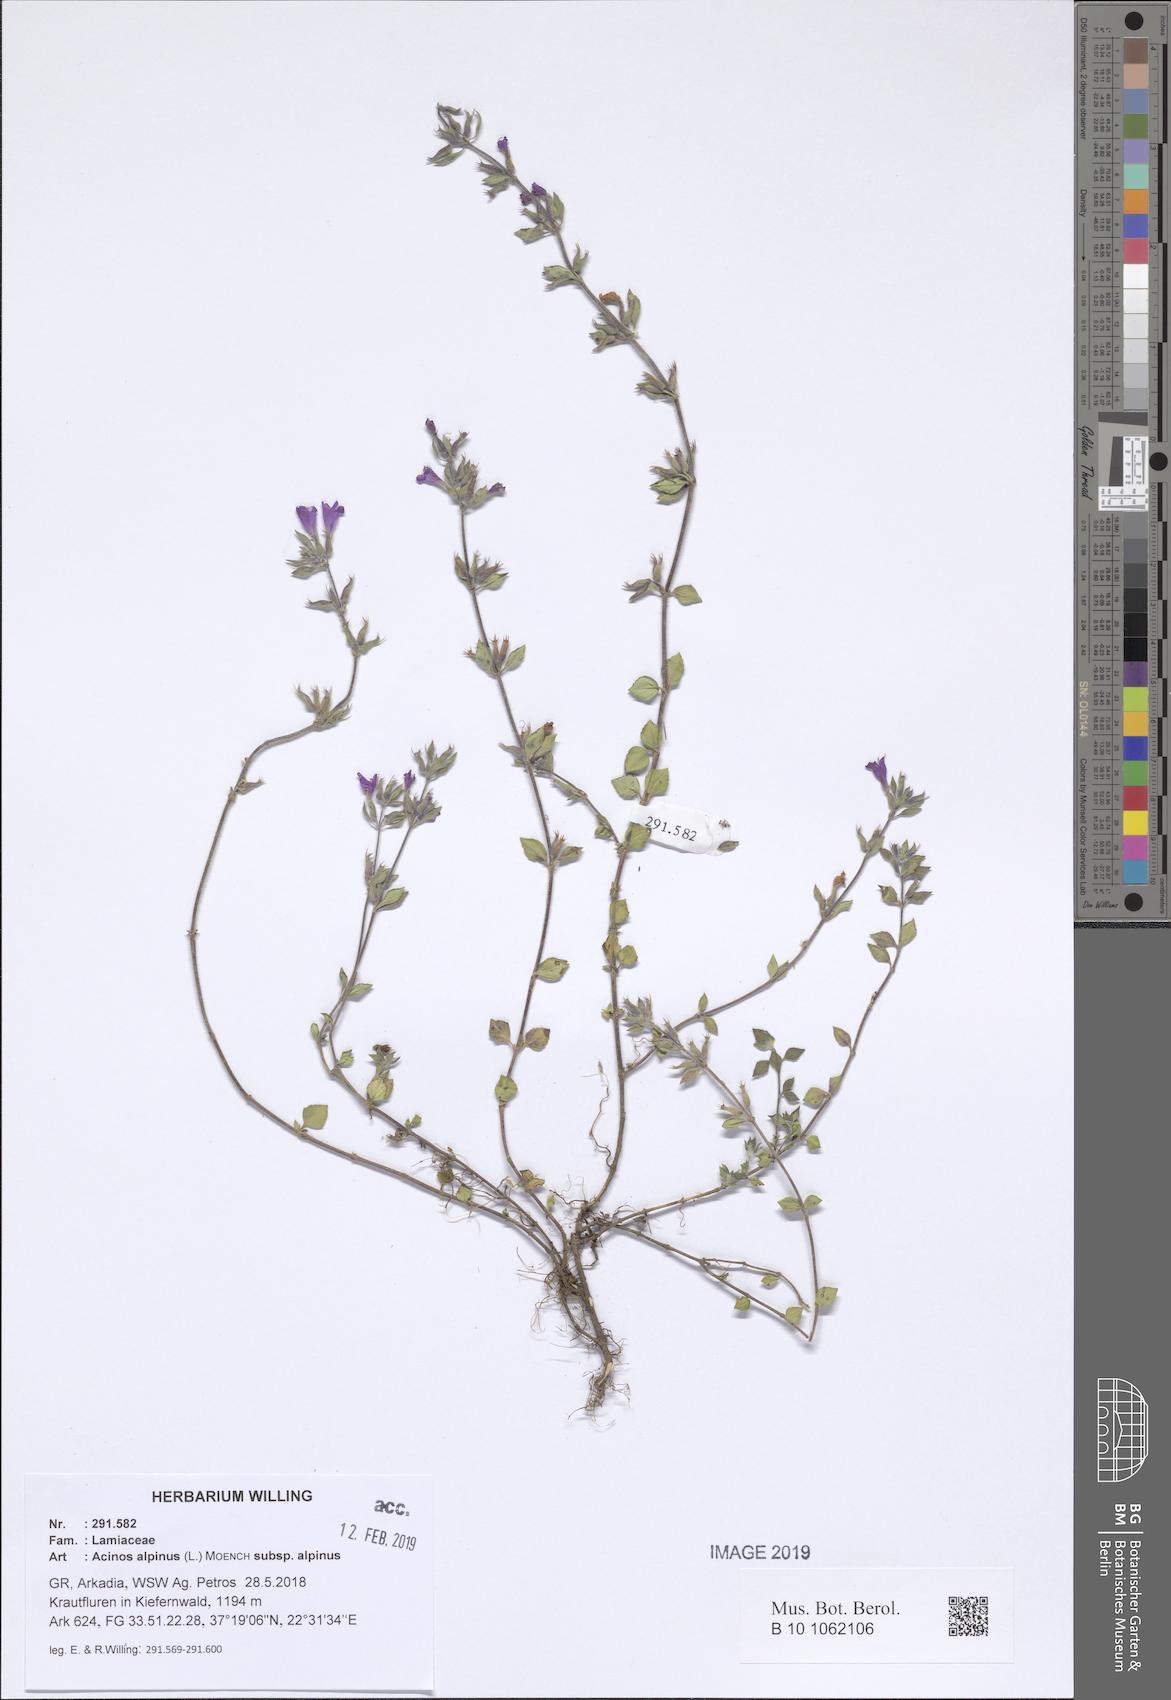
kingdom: Plantae
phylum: Tracheophyta
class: Magnoliopsida
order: Lamiales
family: Lamiaceae
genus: Clinopodium
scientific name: Clinopodium alpinum
